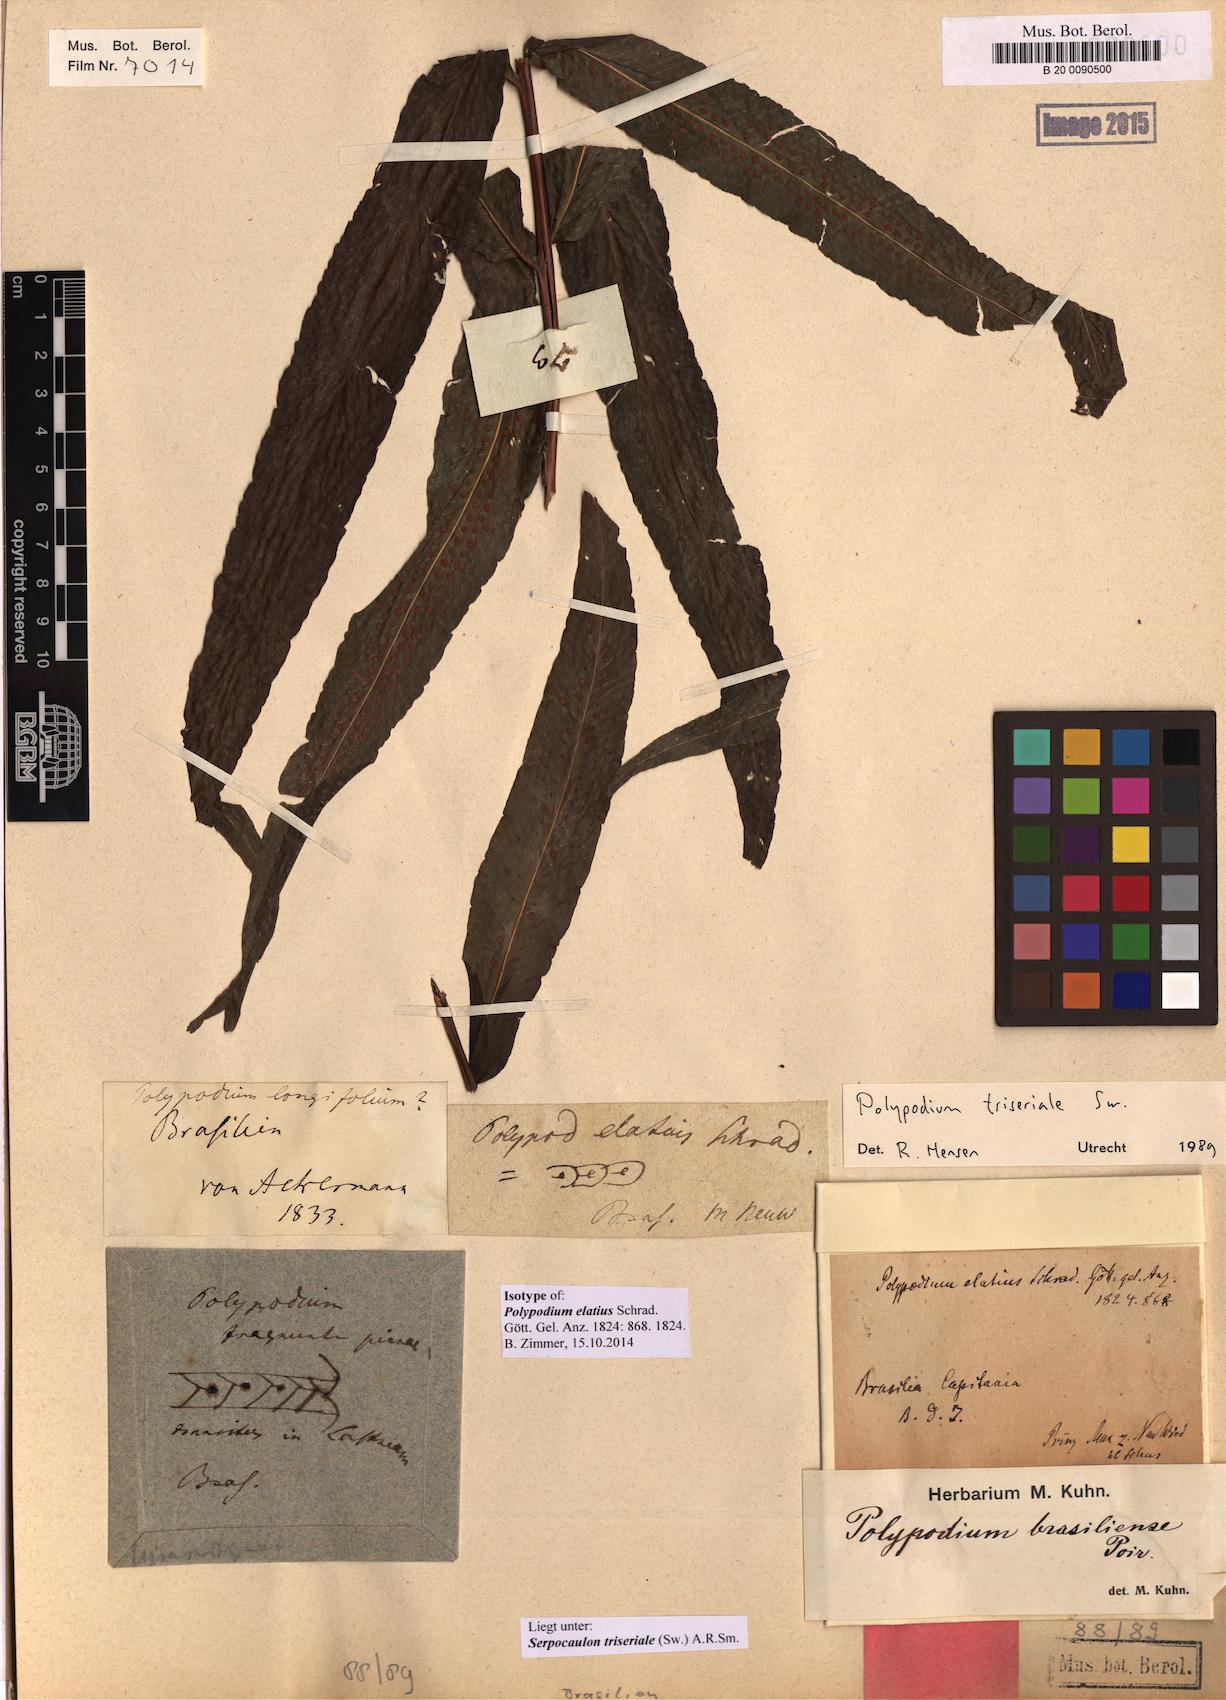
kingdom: Plantae
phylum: Tracheophyta
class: Polypodiopsida
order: Polypodiales
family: Polypodiaceae
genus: Serpocaulon
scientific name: Serpocaulon triseriale
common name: Angle-vein fern
